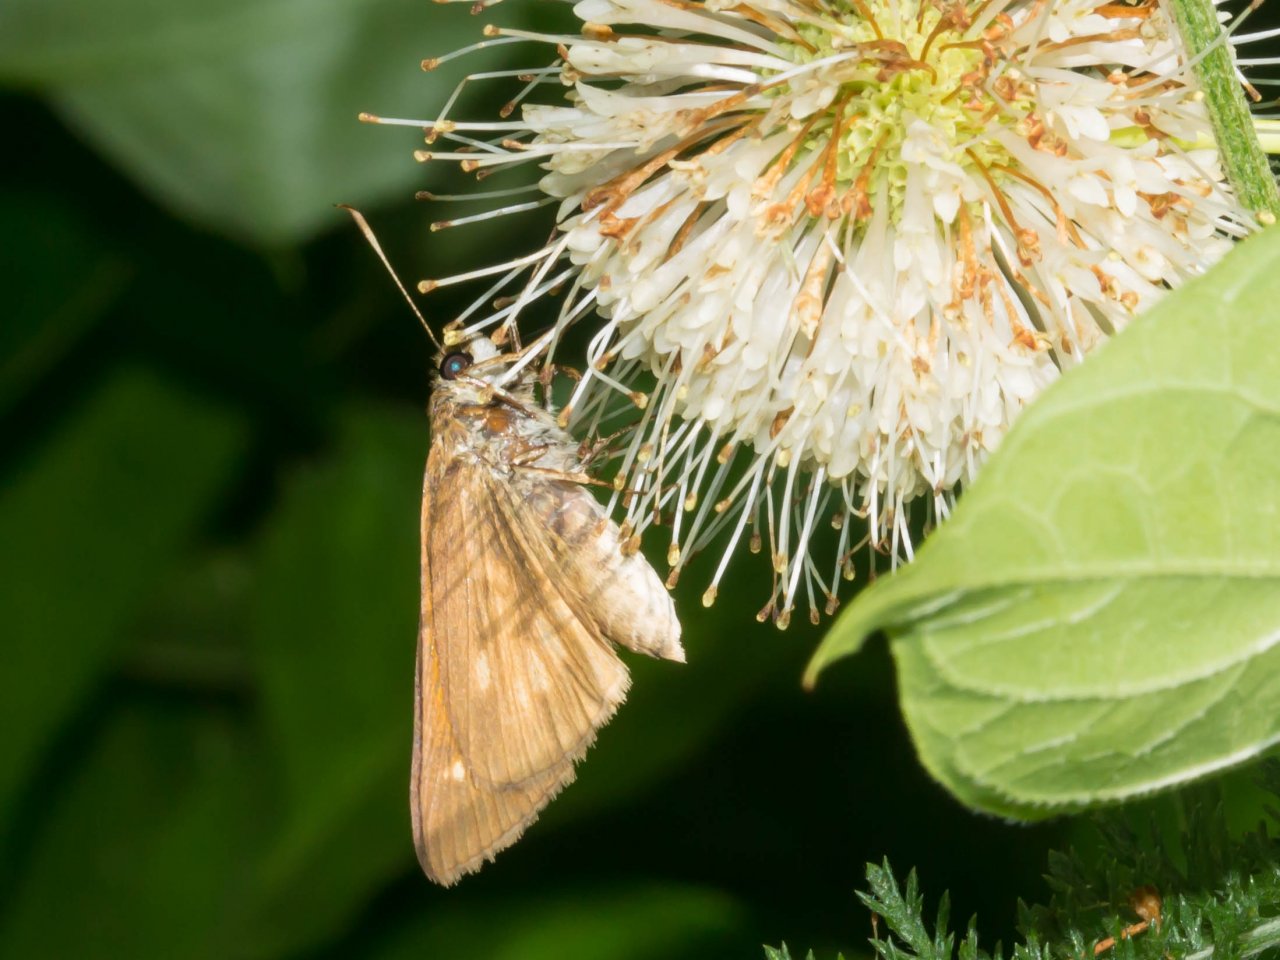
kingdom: Animalia
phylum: Arthropoda
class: Insecta
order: Lepidoptera
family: Hesperiidae
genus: Poanes
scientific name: Poanes viator
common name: Broad-winged Skipper
